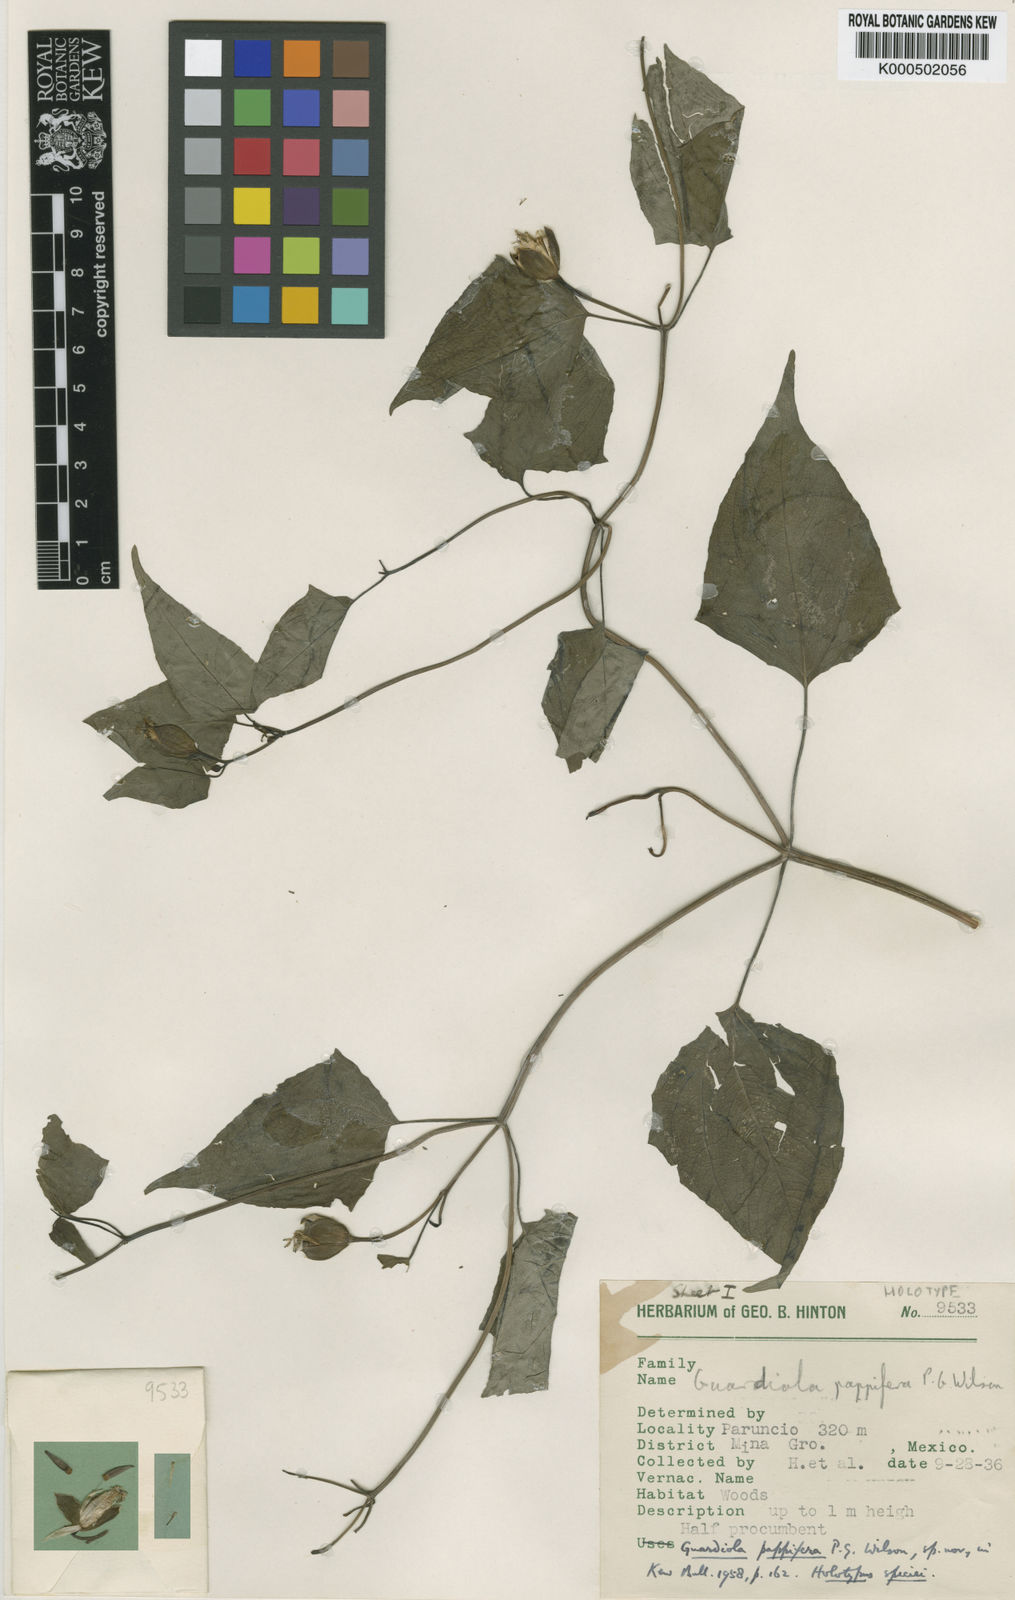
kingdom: Plantae
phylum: Tracheophyta
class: Magnoliopsida
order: Asterales
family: Asteraceae
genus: Guardiola
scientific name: Guardiola pappifera
